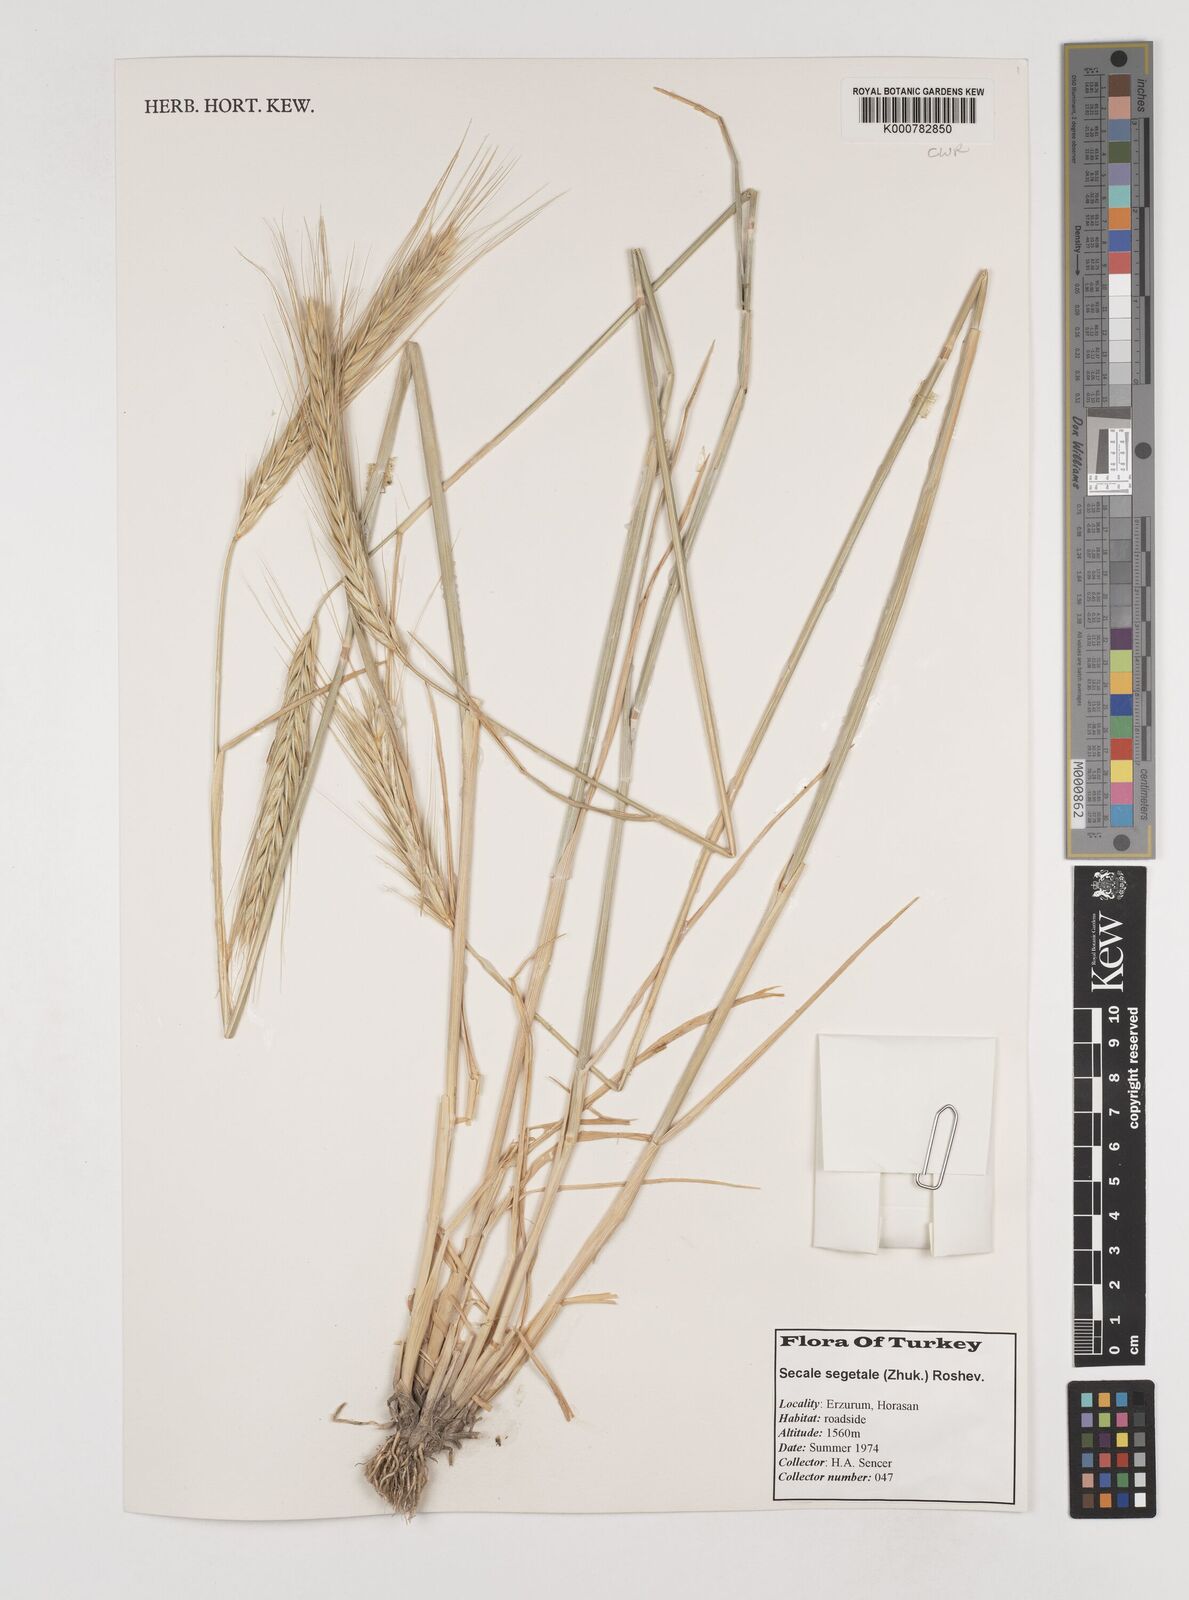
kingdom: Plantae
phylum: Tracheophyta
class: Liliopsida
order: Poales
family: Poaceae
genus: Secale
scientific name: Secale segetale
